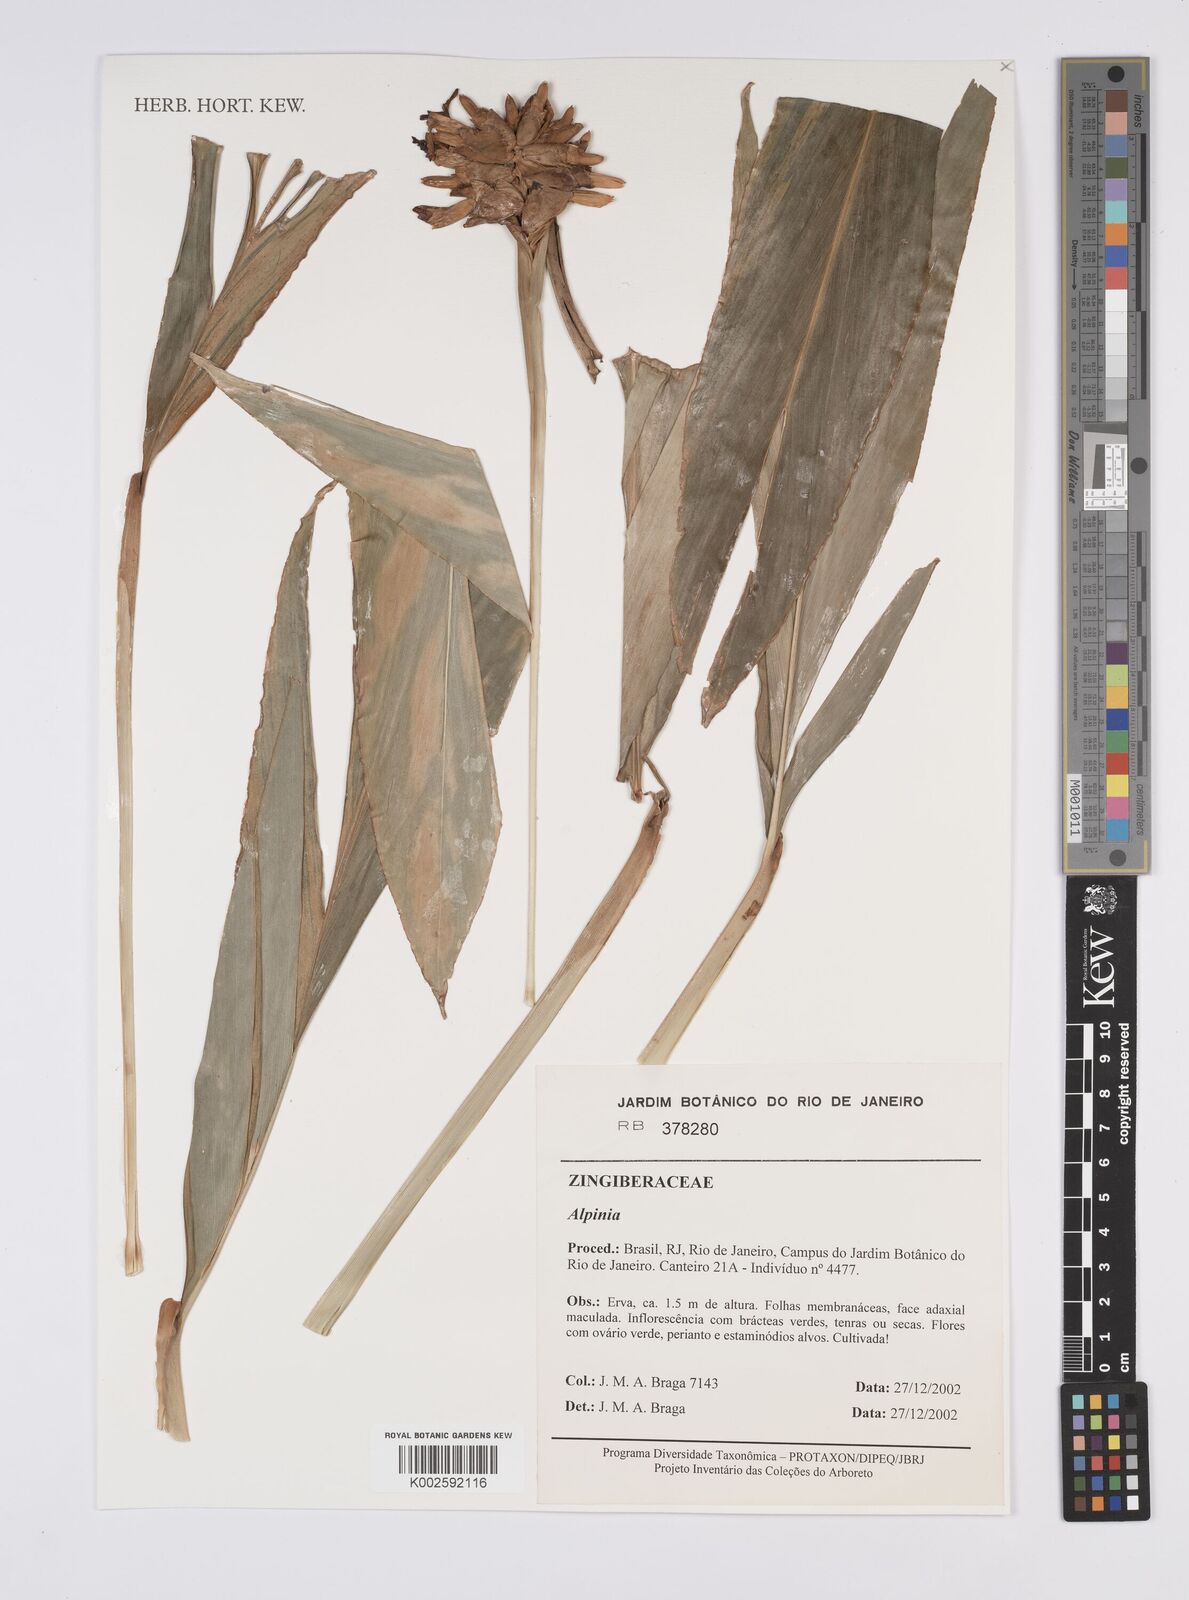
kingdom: Plantae
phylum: Tracheophyta
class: Liliopsida
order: Zingiberales
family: Zingiberaceae
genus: Alpinia
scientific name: Alpinia
